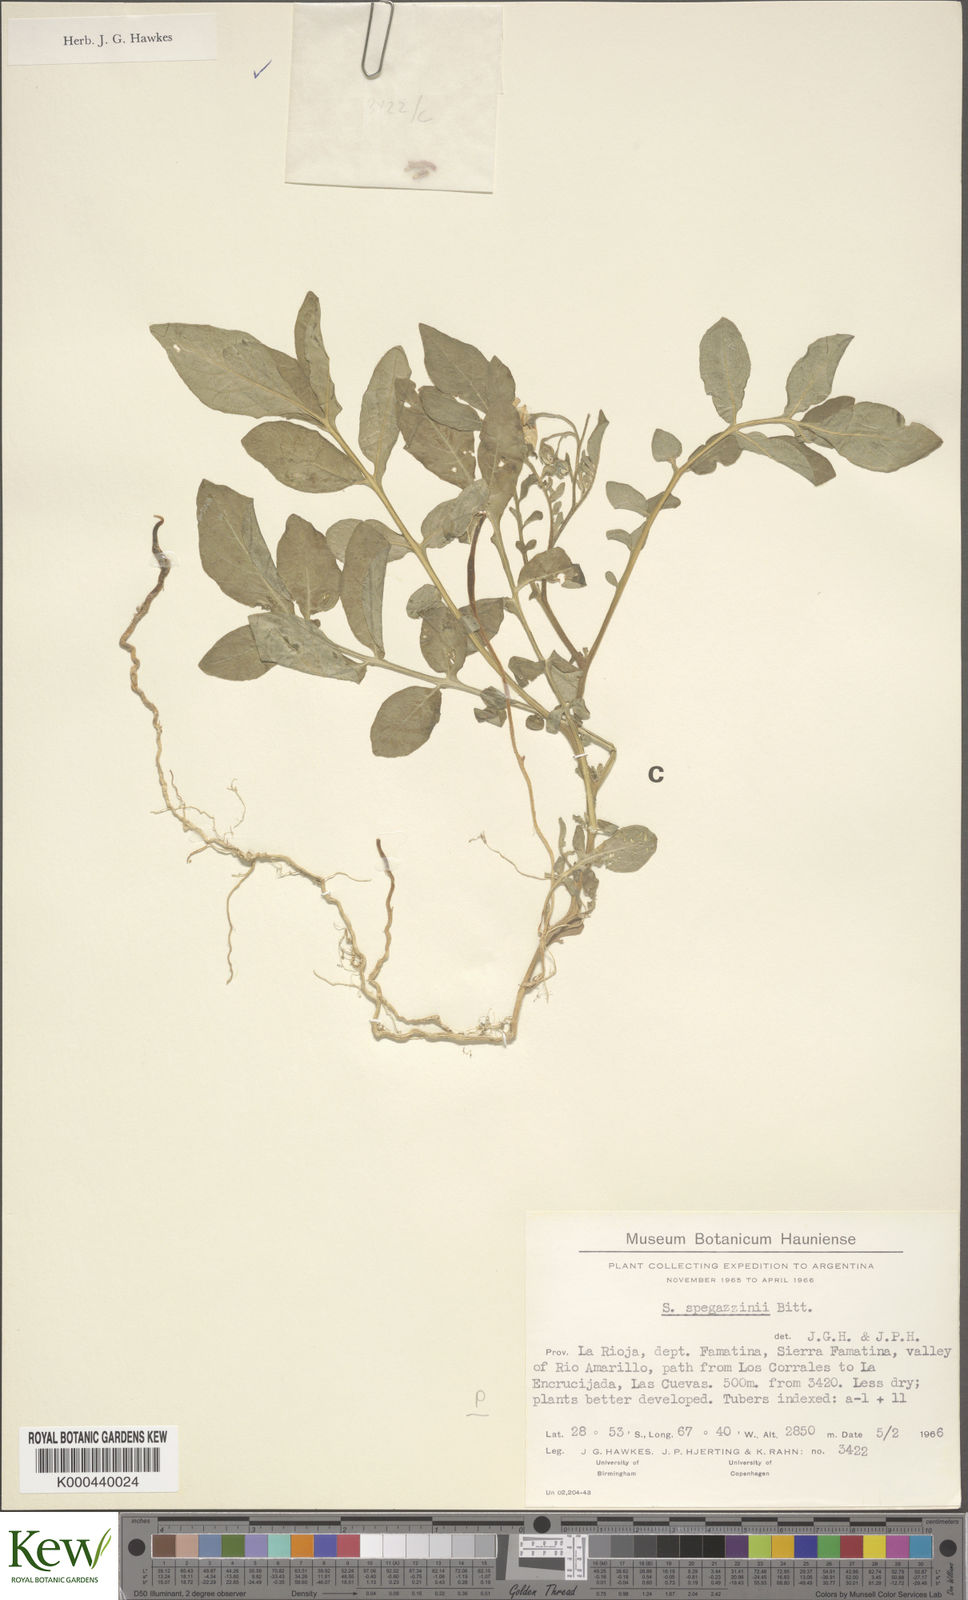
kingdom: Plantae
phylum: Tracheophyta
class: Magnoliopsida
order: Solanales
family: Solanaceae
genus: Solanum
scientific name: Solanum brevicaule
